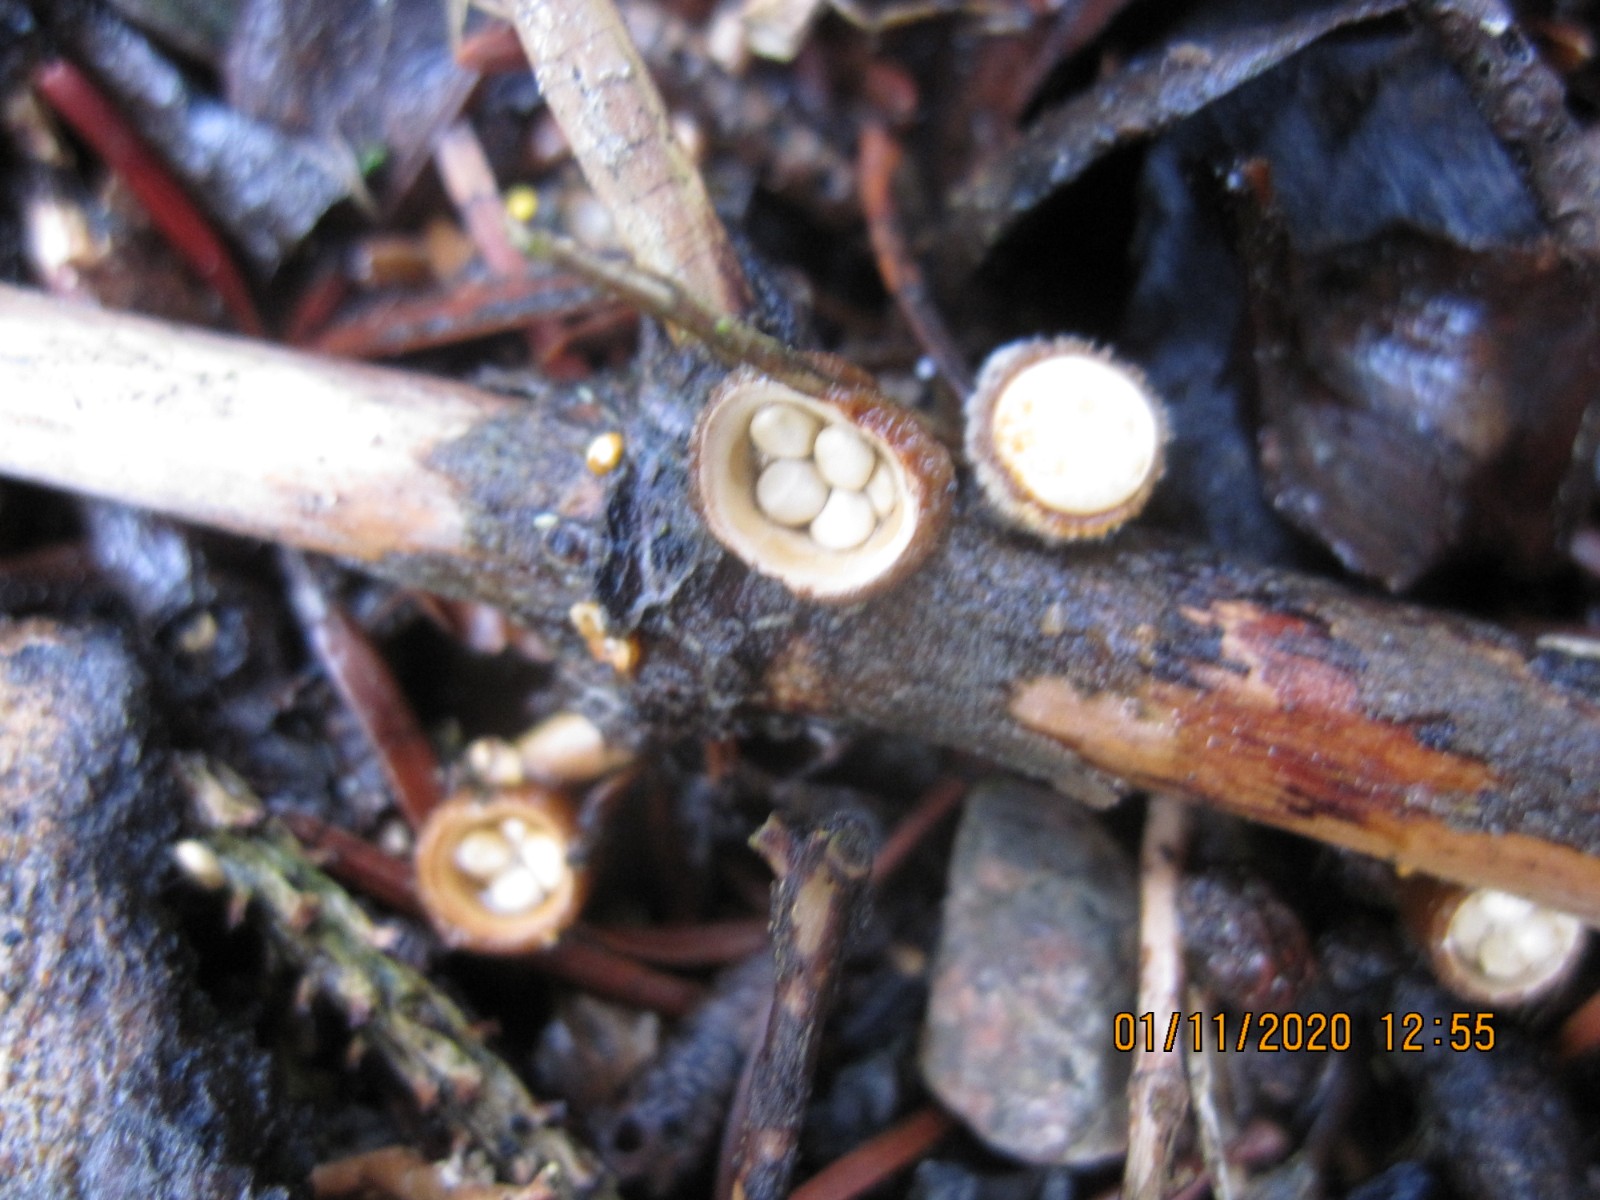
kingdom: Fungi
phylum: Basidiomycota
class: Agaricomycetes
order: Agaricales
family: Nidulariaceae
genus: Crucibulum
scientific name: Crucibulum crucibuliforme
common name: krukkesvamp
